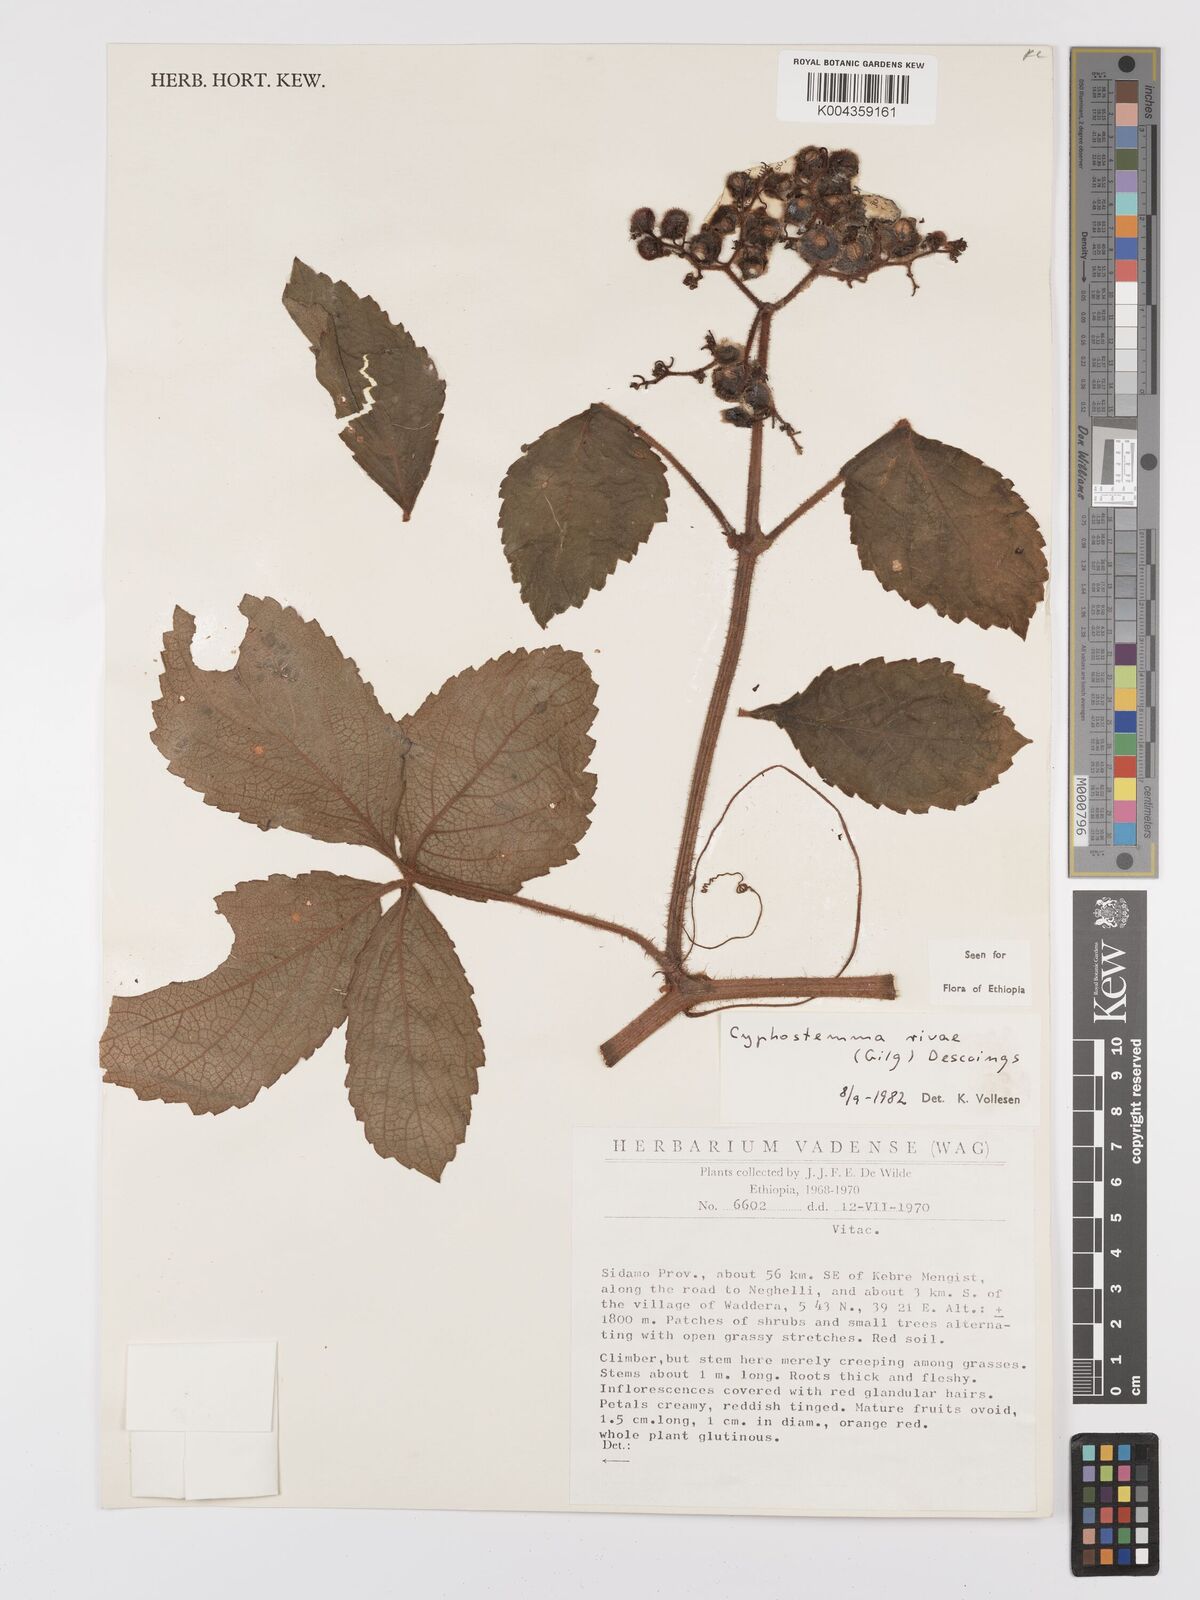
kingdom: Plantae
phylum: Tracheophyta
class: Magnoliopsida
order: Vitales
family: Vitaceae
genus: Cyphostemma
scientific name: Cyphostemma rivae
